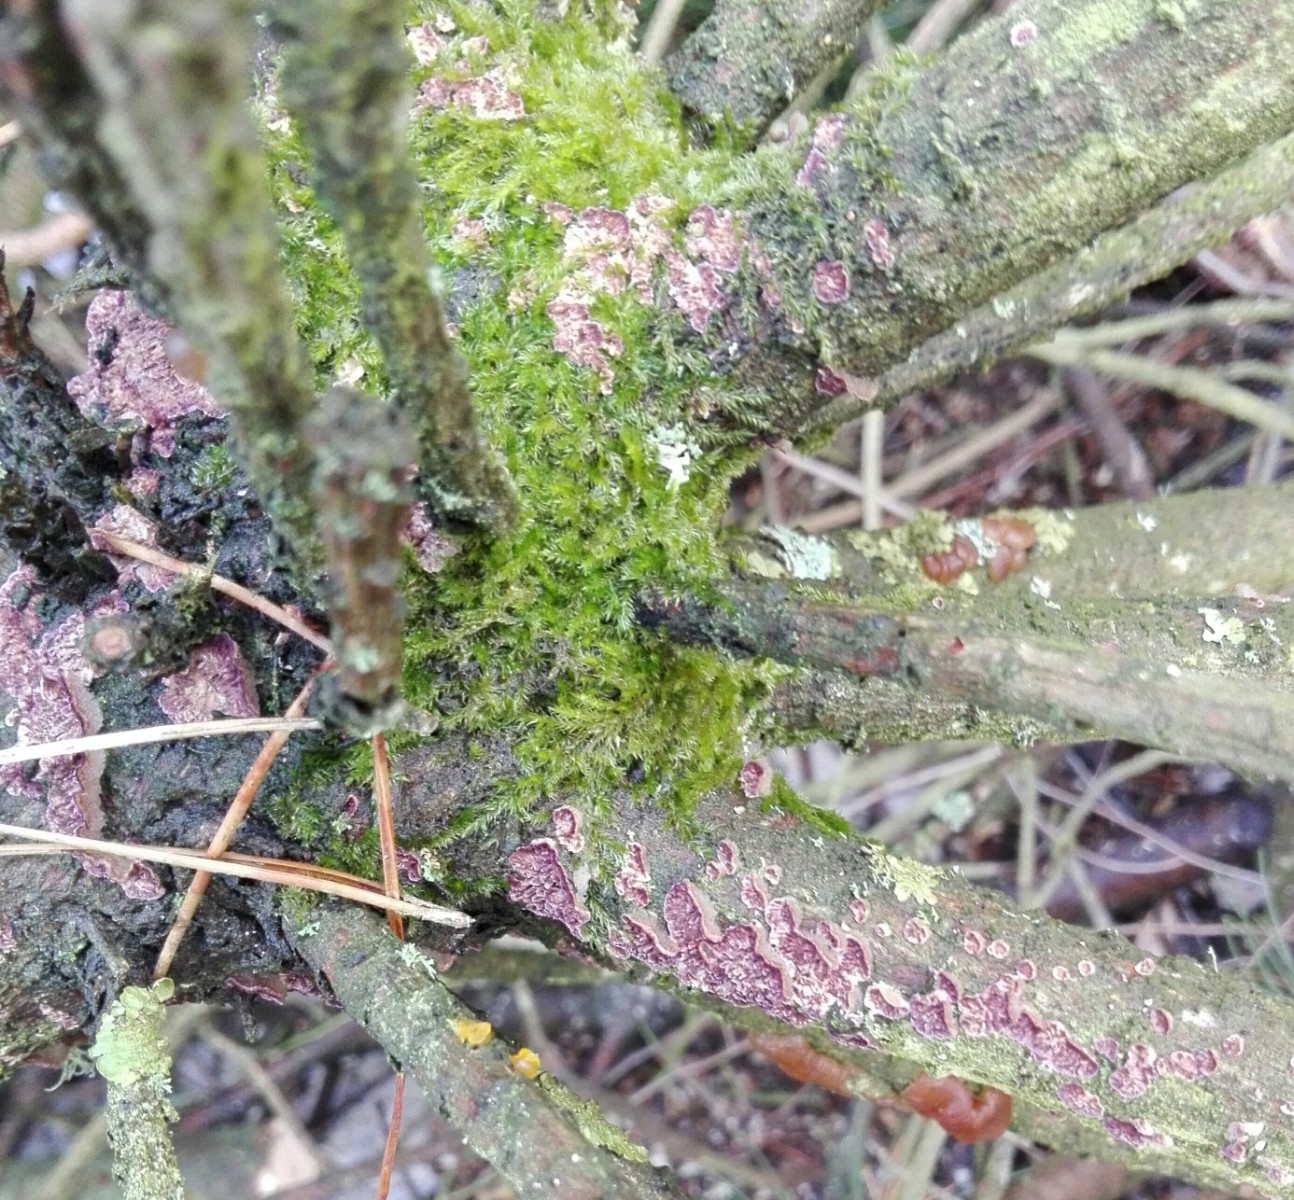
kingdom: Fungi
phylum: Basidiomycota
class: Agaricomycetes
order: Hymenochaetales
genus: Trichaptum
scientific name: Trichaptum fuscoviolaceum
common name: tandet violporesvamp
